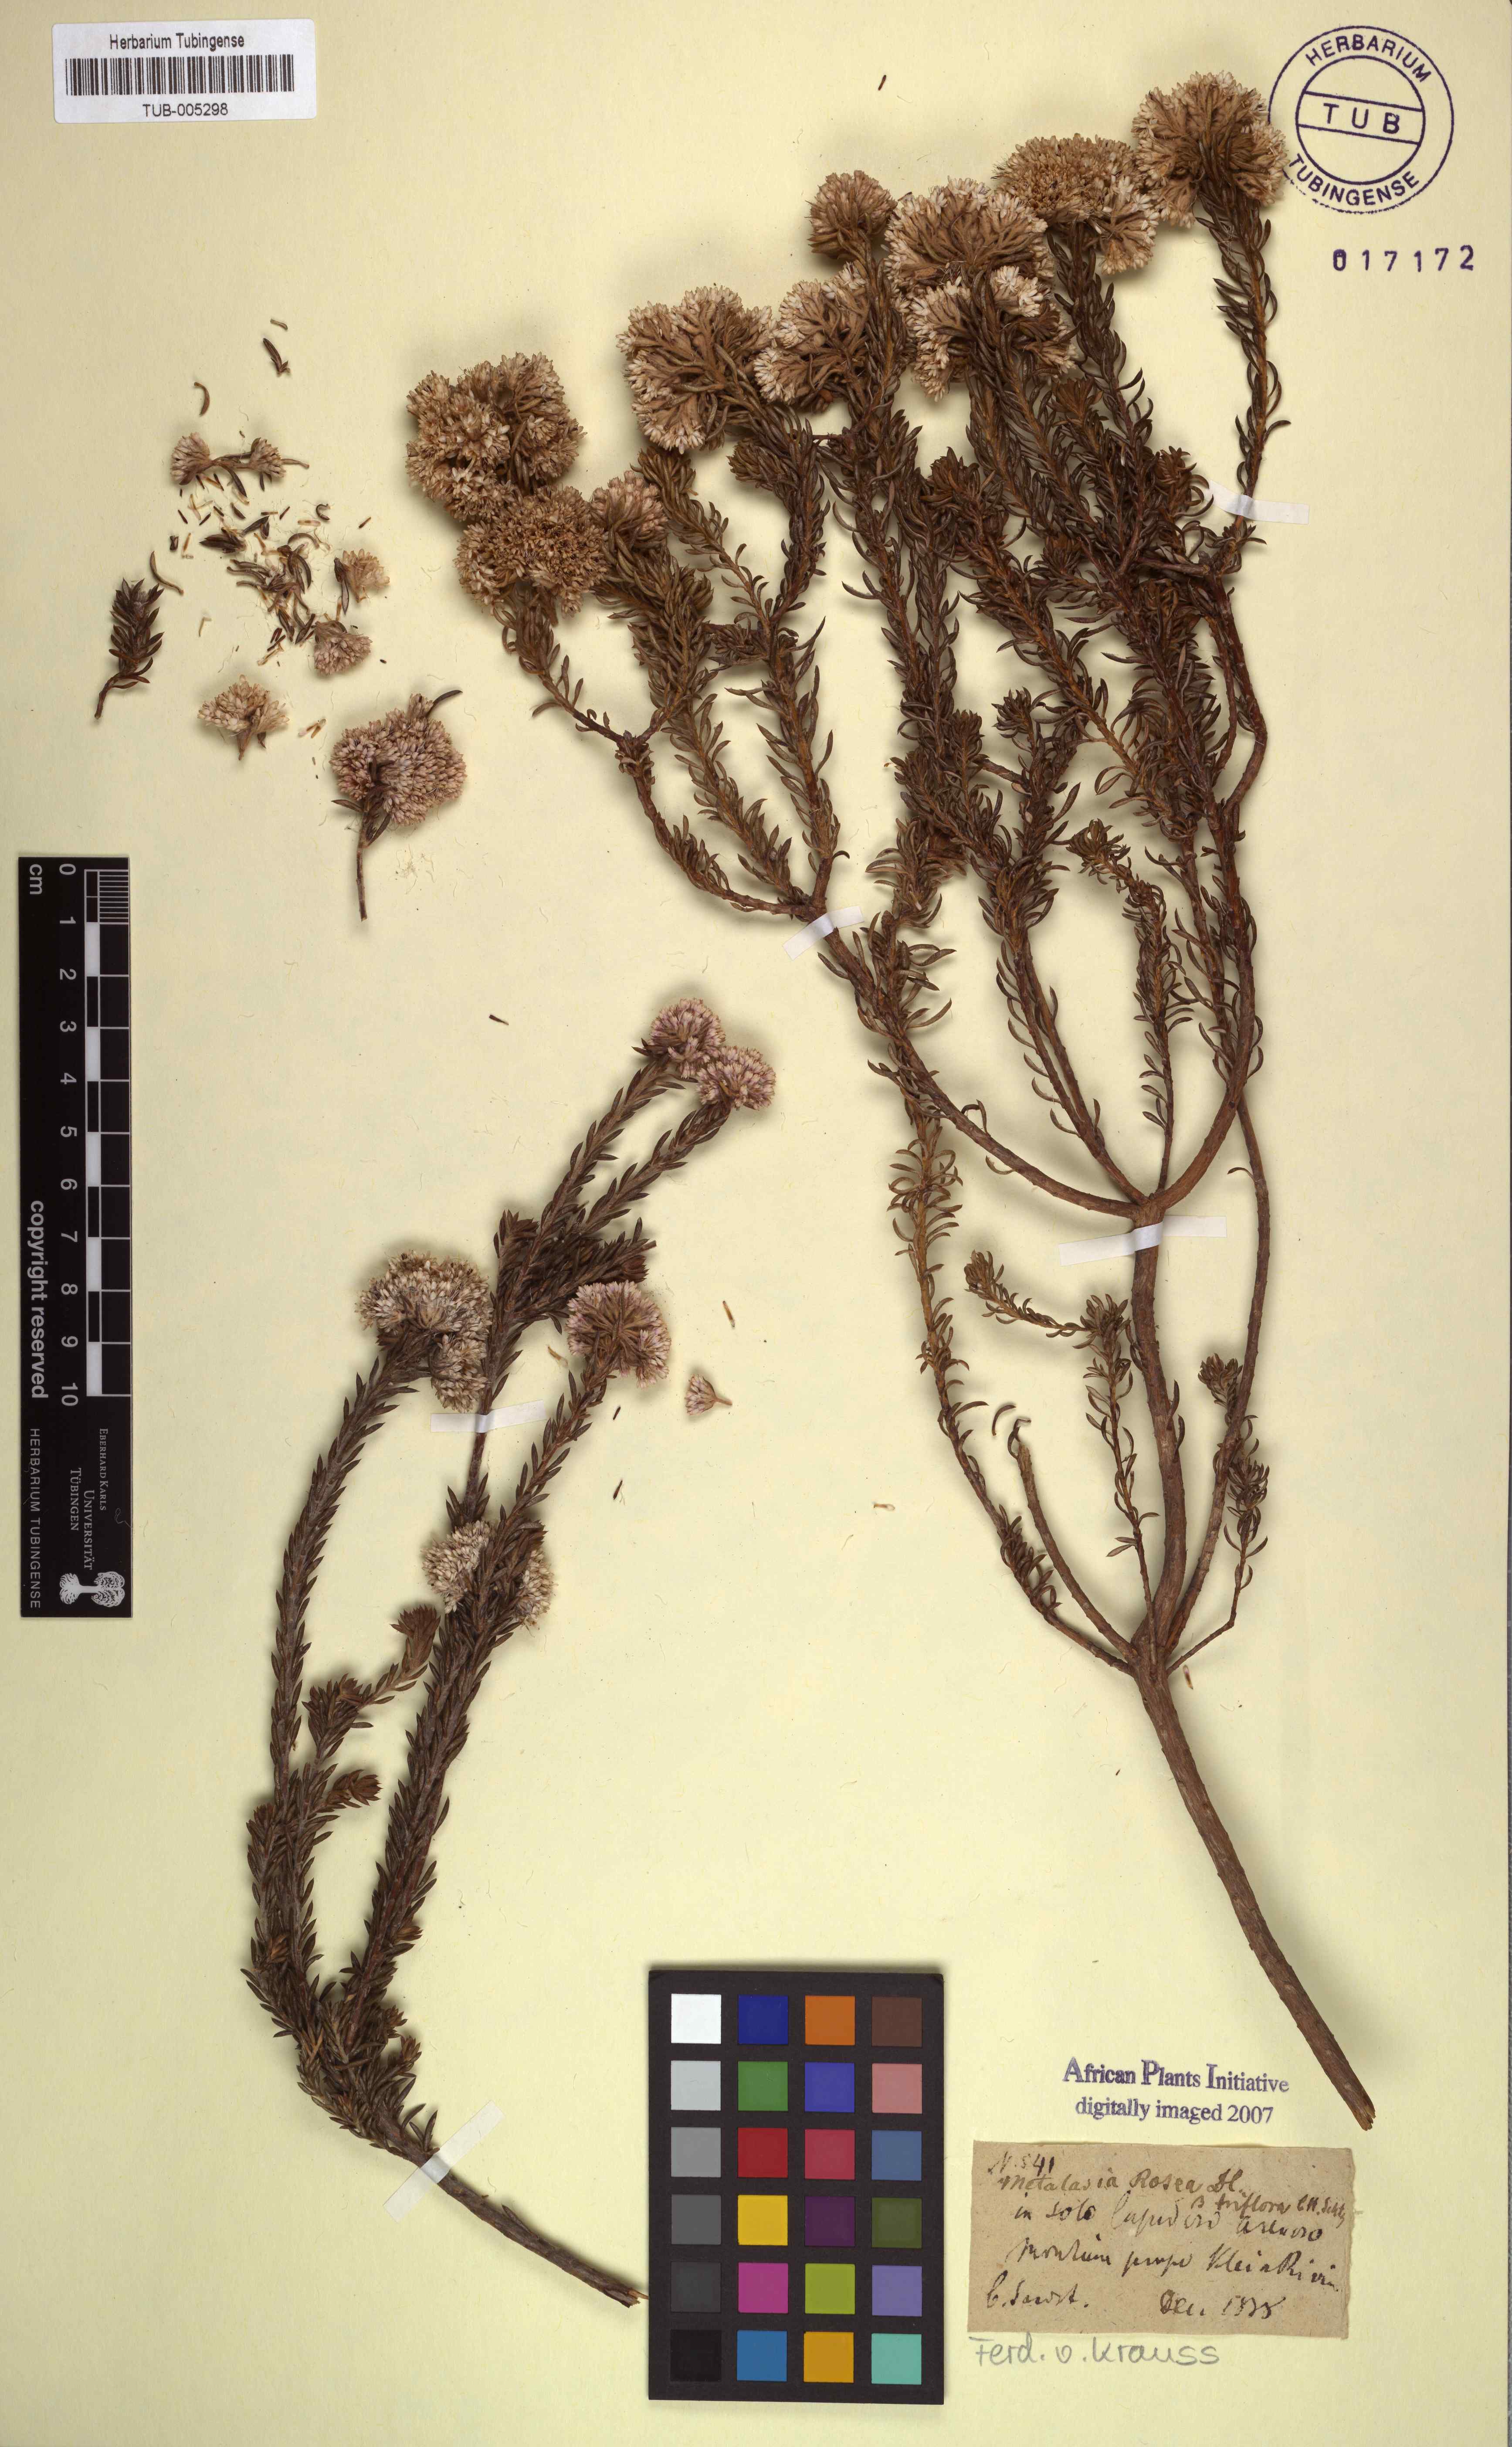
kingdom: Plantae
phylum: Tracheophyta
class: Magnoliopsida
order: Asterales
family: Asteraceae
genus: Metalasia
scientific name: Metalasia cephalotes
